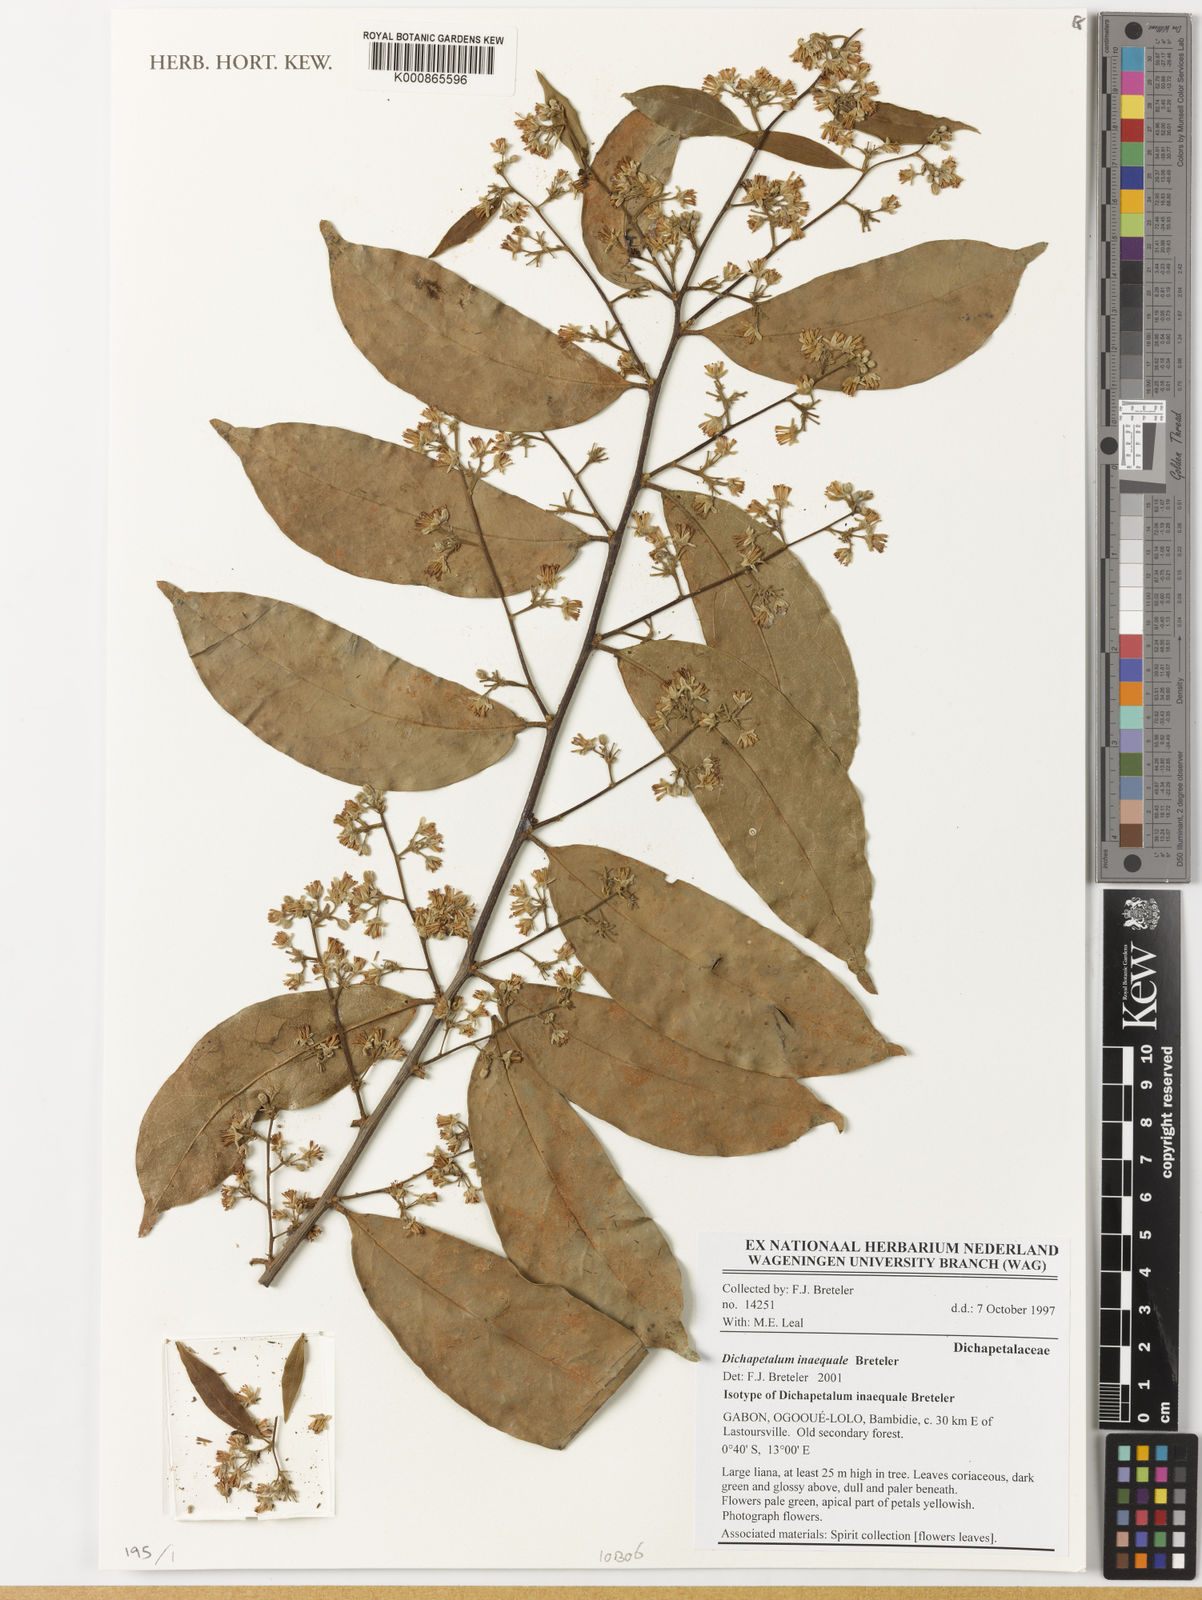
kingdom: Plantae
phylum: Tracheophyta
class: Magnoliopsida
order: Malpighiales
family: Dichapetalaceae
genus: Dichapetalum
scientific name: Dichapetalum inaequale
